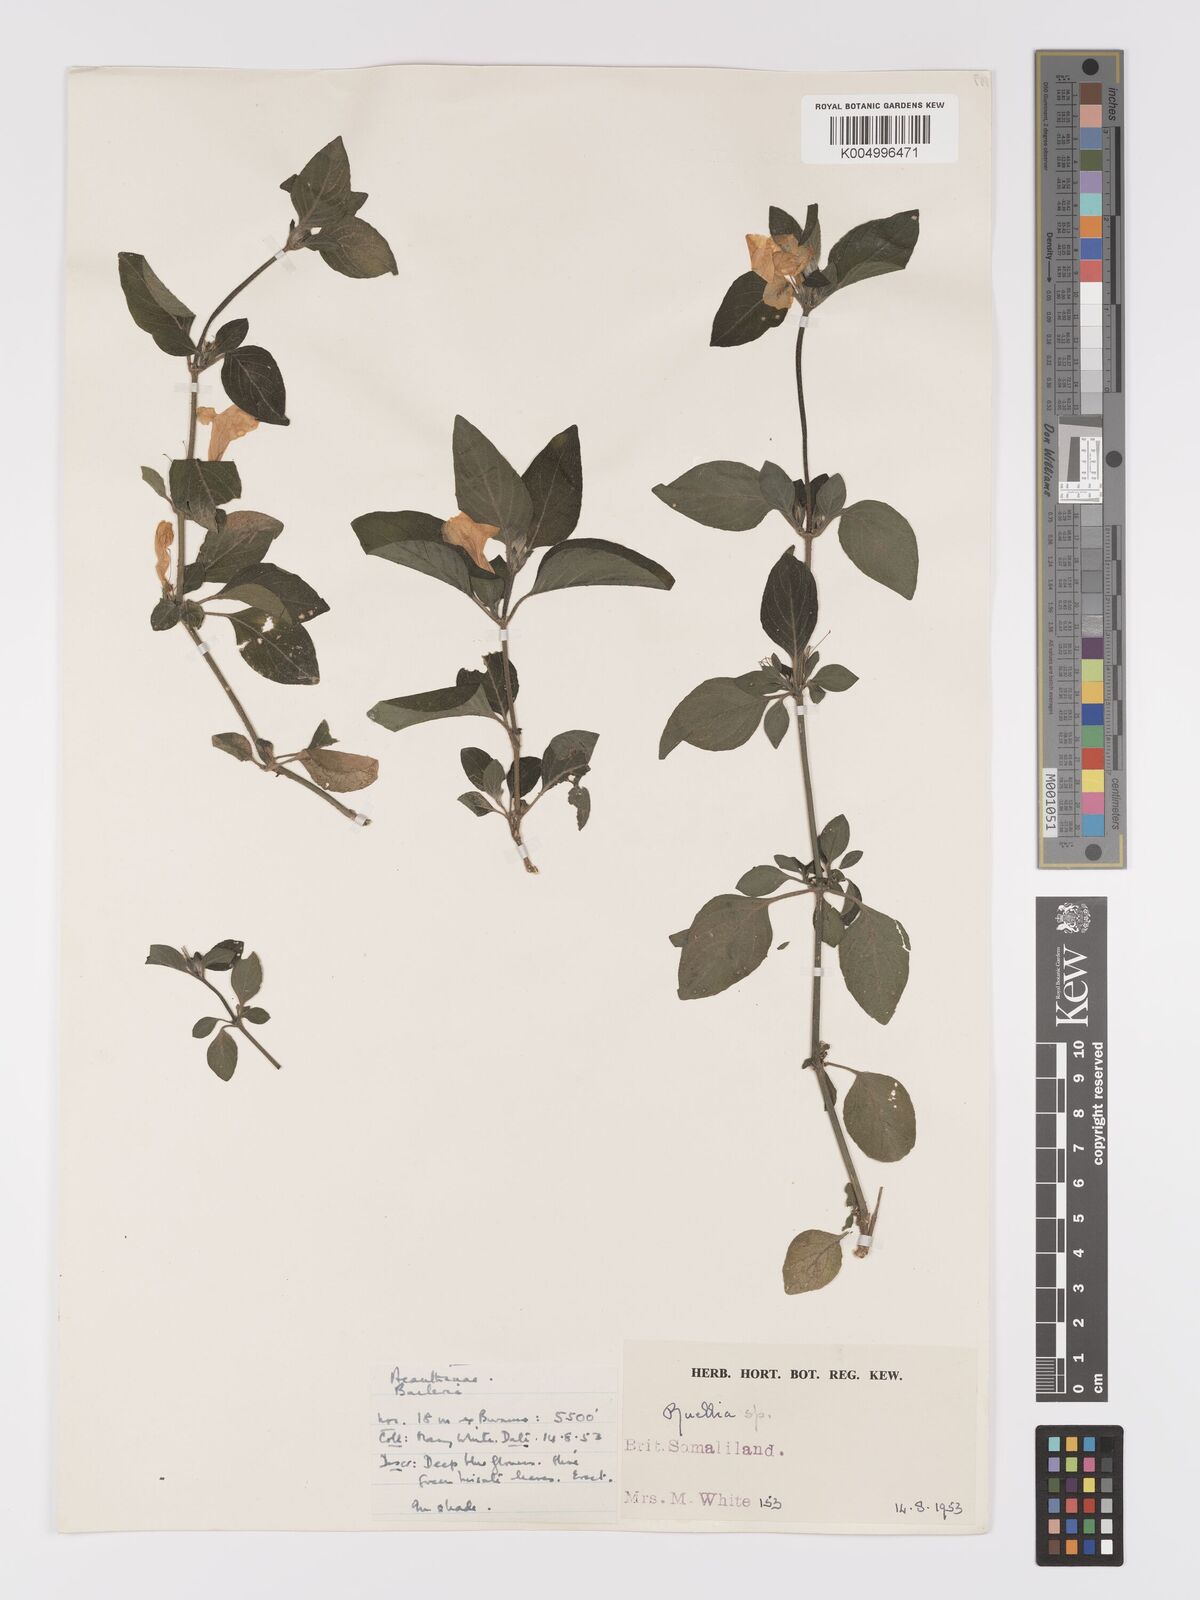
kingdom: Plantae
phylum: Tracheophyta
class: Magnoliopsida
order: Lamiales
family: Acanthaceae
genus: Ruellia
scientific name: Ruellia
